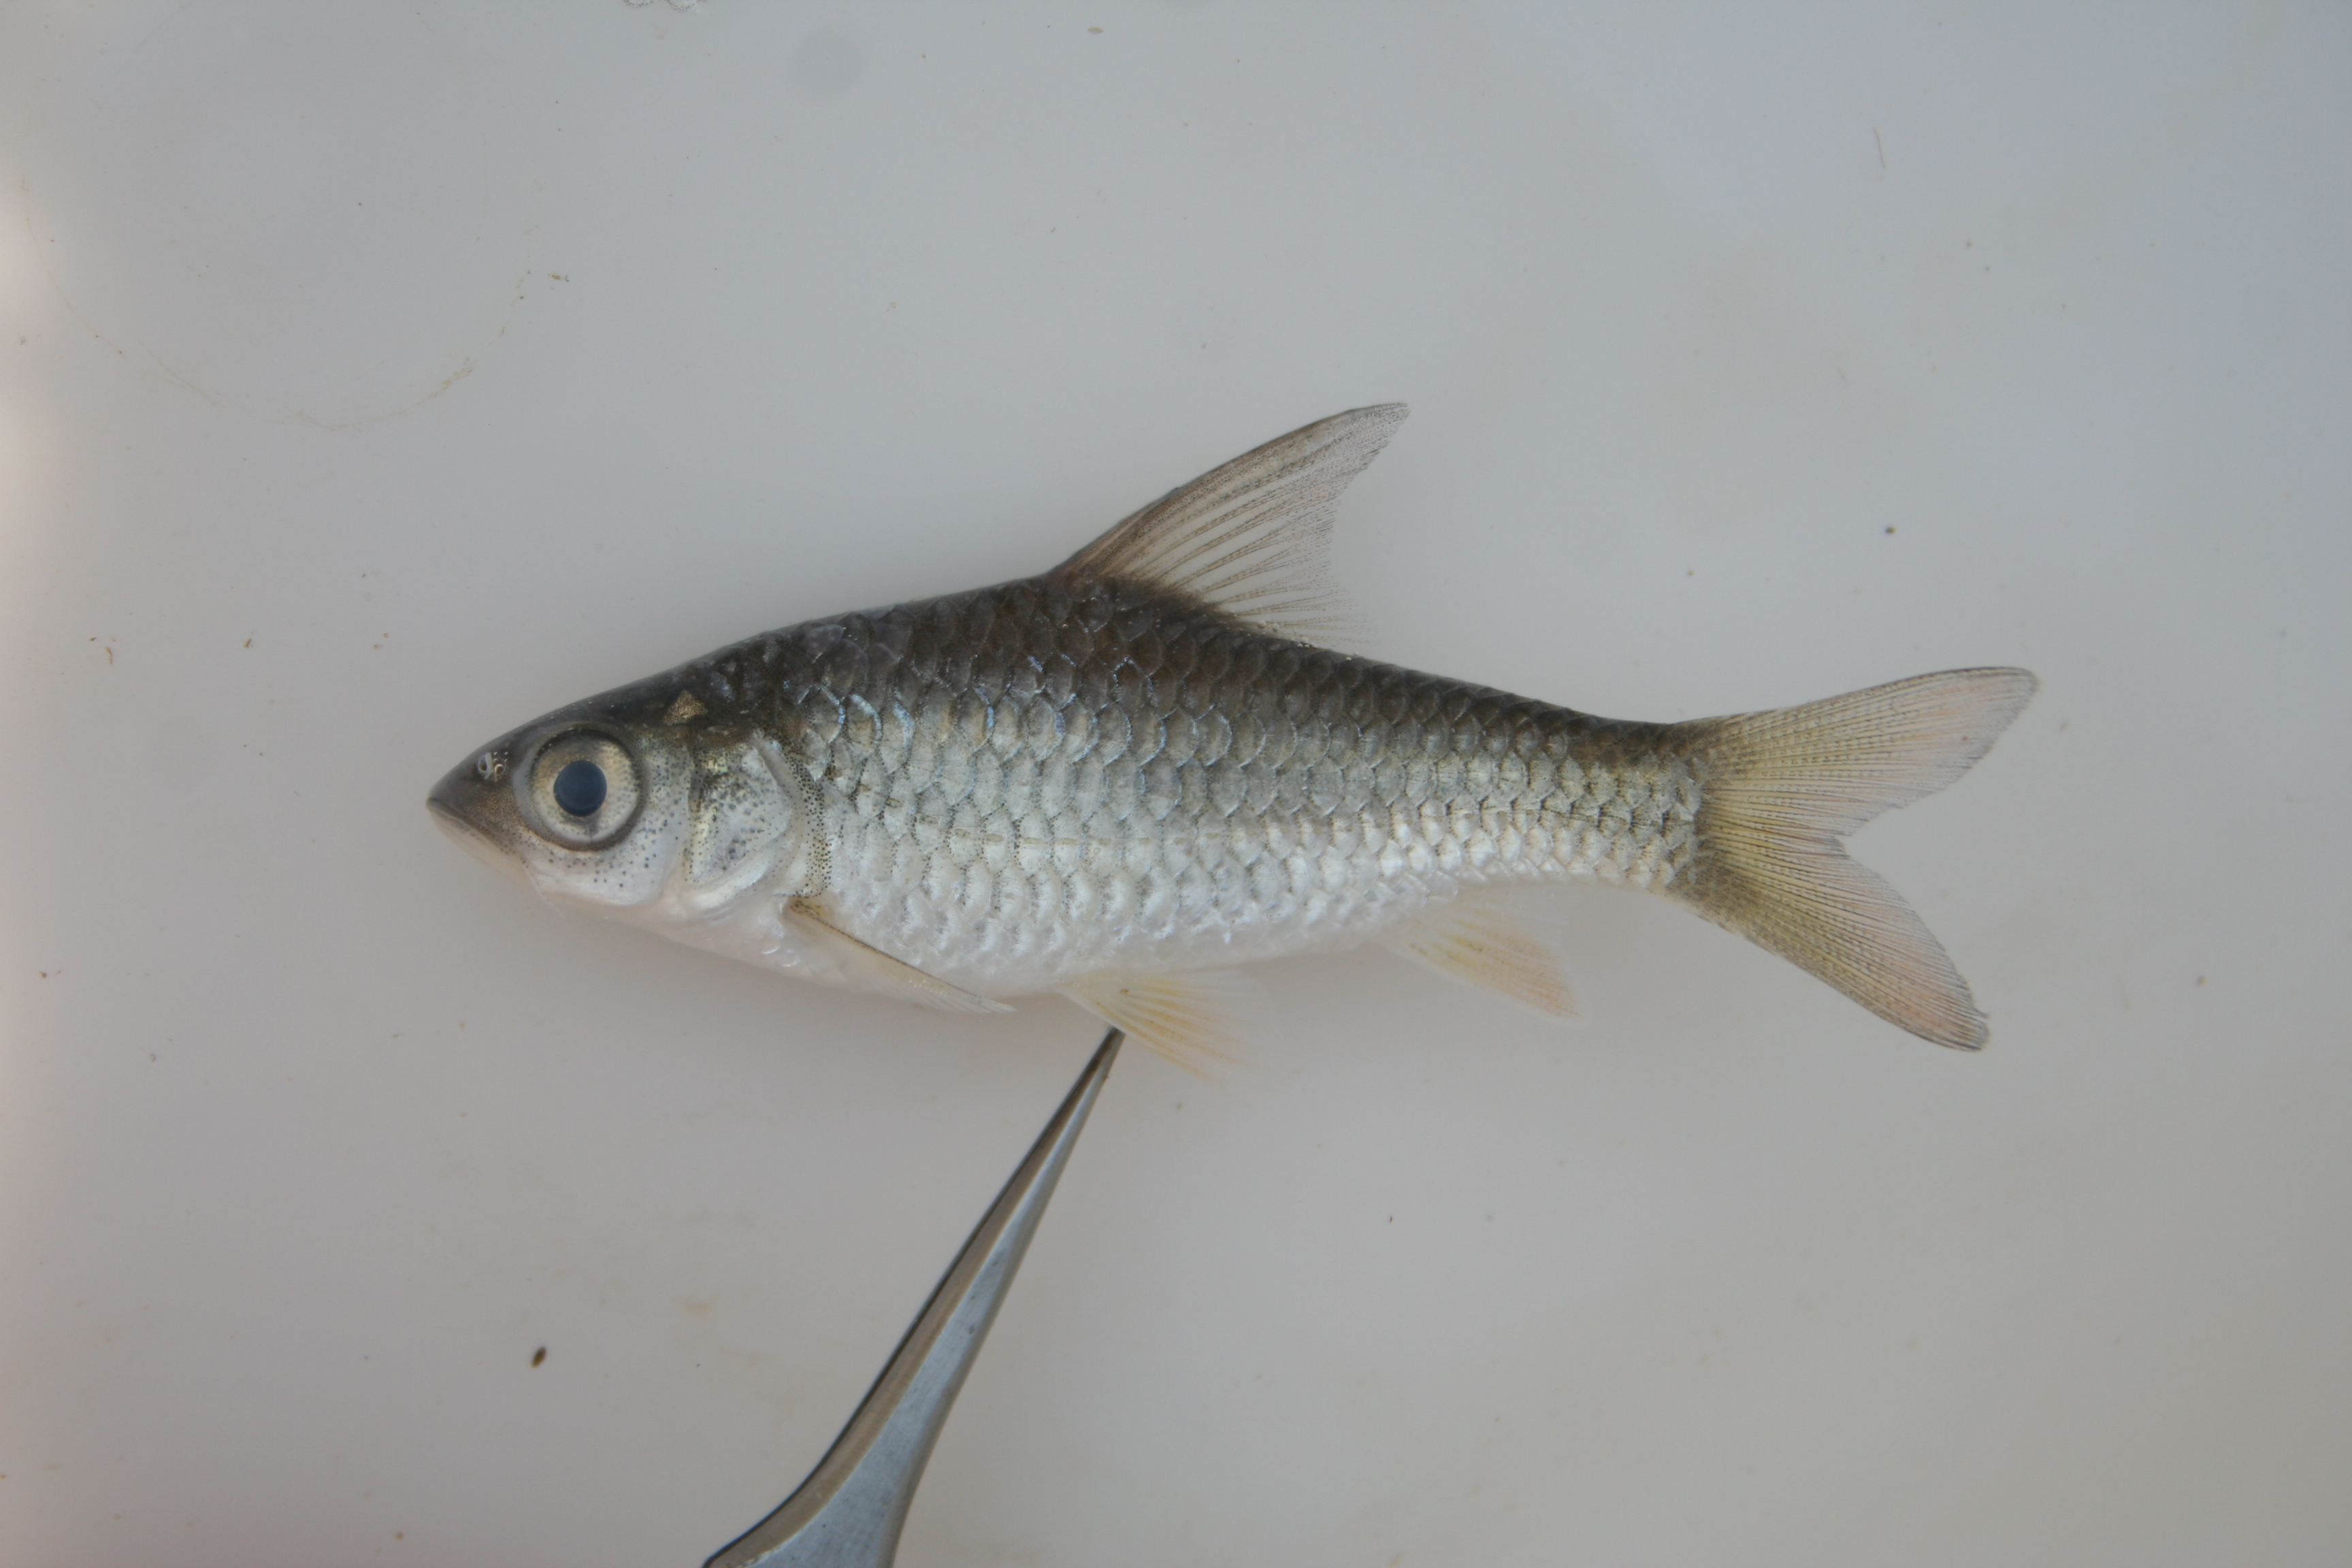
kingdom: Animalia
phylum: Chordata
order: Cypriniformes
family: Cyprinidae
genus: Enteromius
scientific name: Enteromius mattozi
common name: Papermouth
